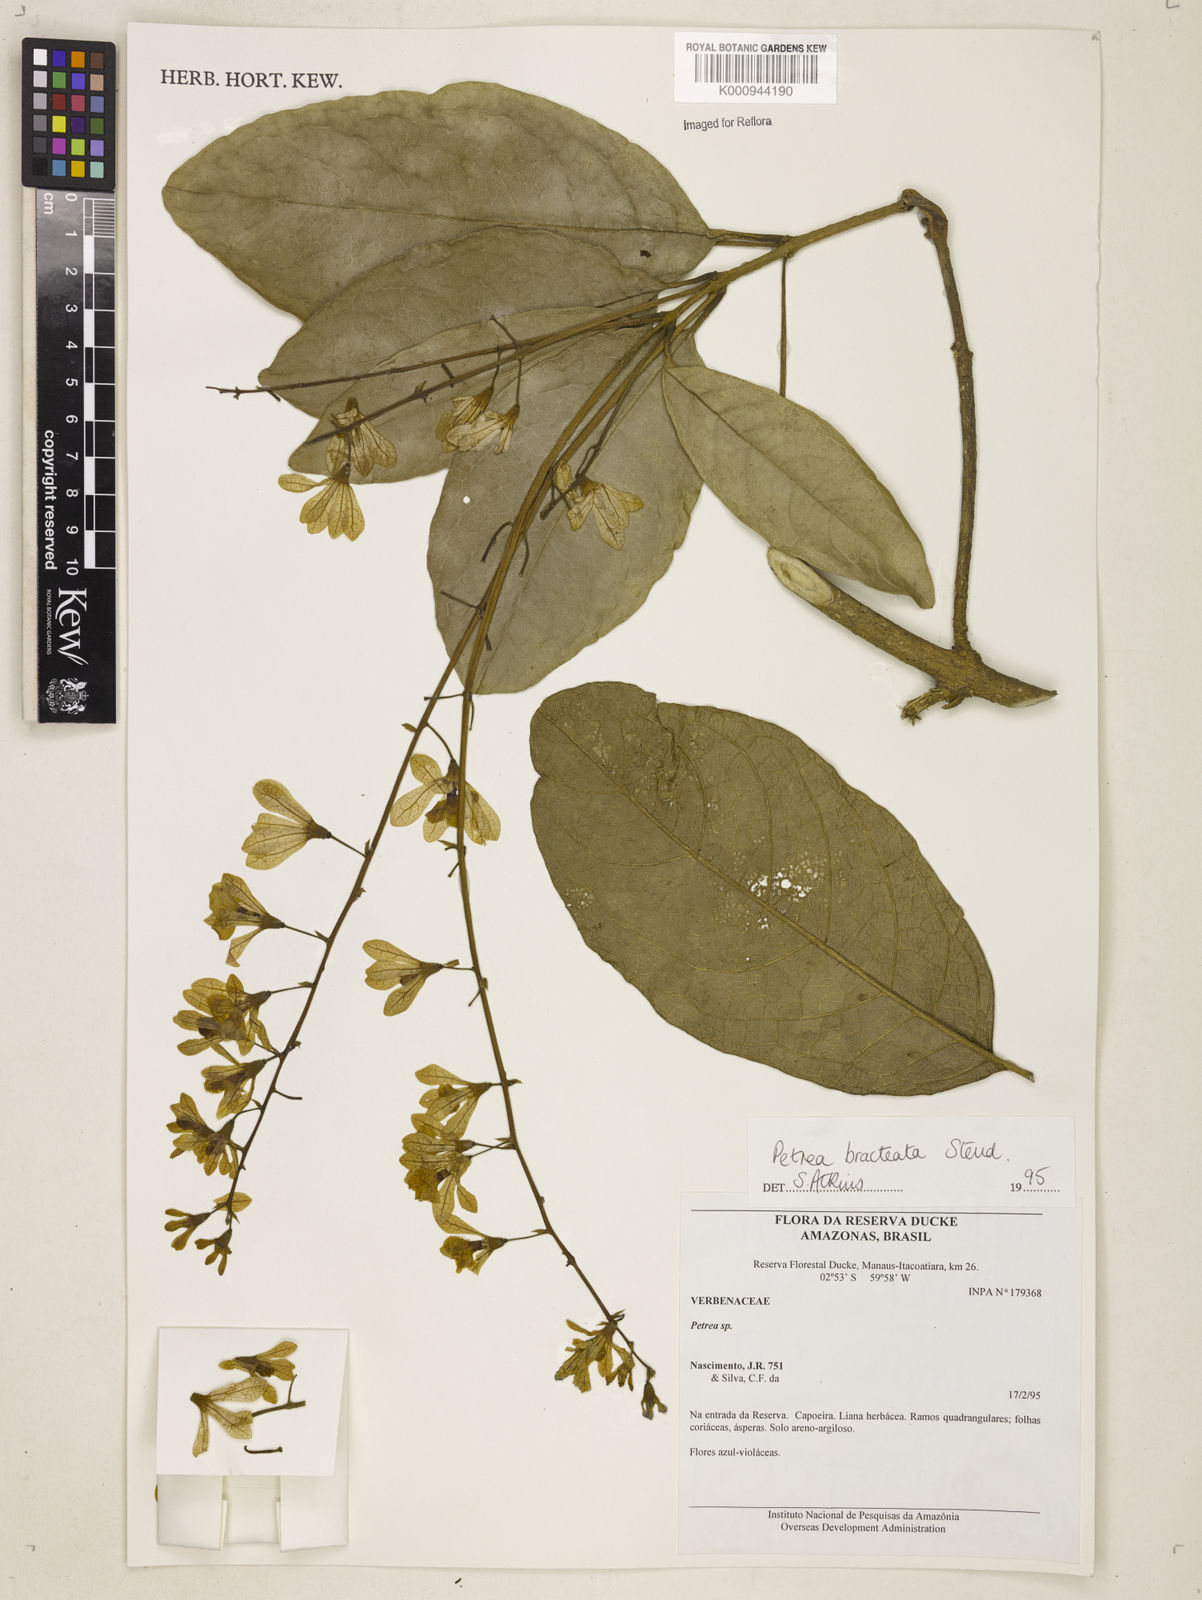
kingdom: Plantae
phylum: Tracheophyta
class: Magnoliopsida
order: Lamiales
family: Verbenaceae
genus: Petrea
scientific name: Petrea bracteata
